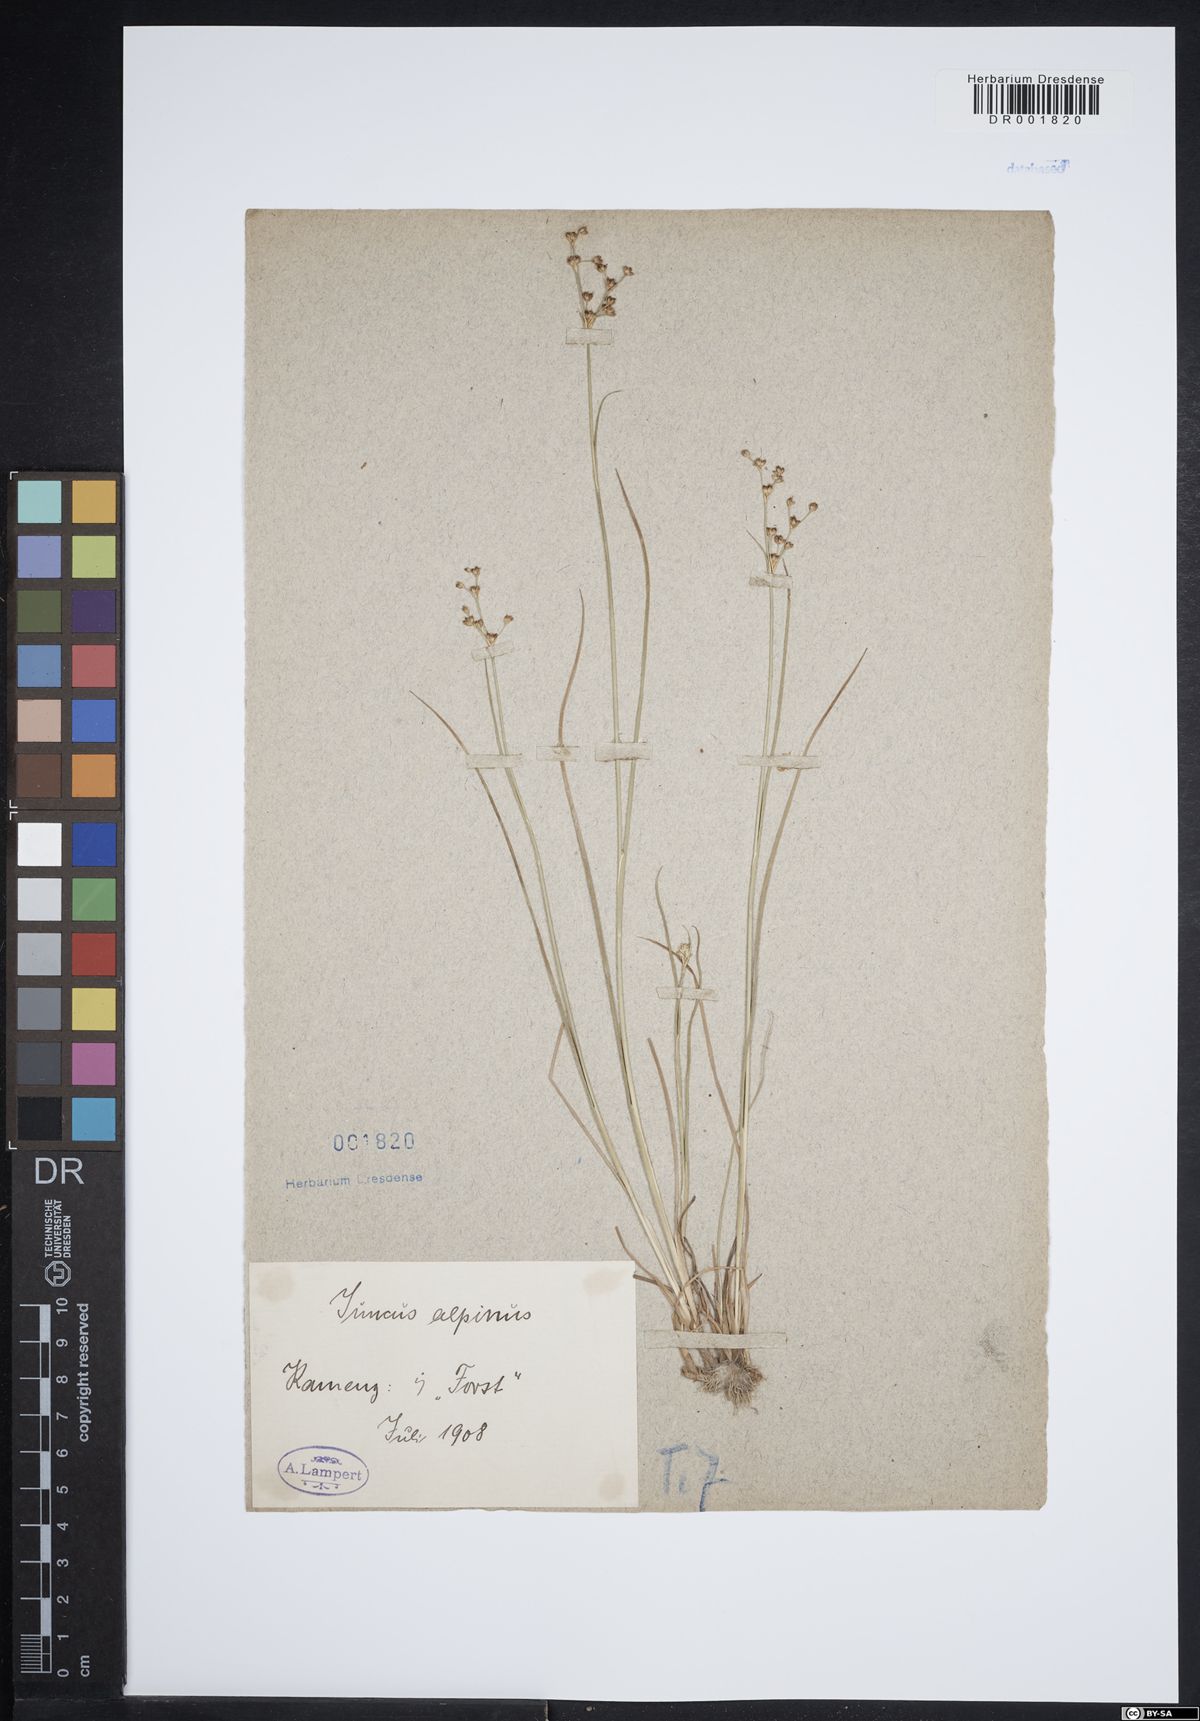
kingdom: Plantae
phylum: Tracheophyta
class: Liliopsida
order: Poales
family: Juncaceae
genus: Juncus
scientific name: Juncus alpinoarticulatus
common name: Alpine rush
